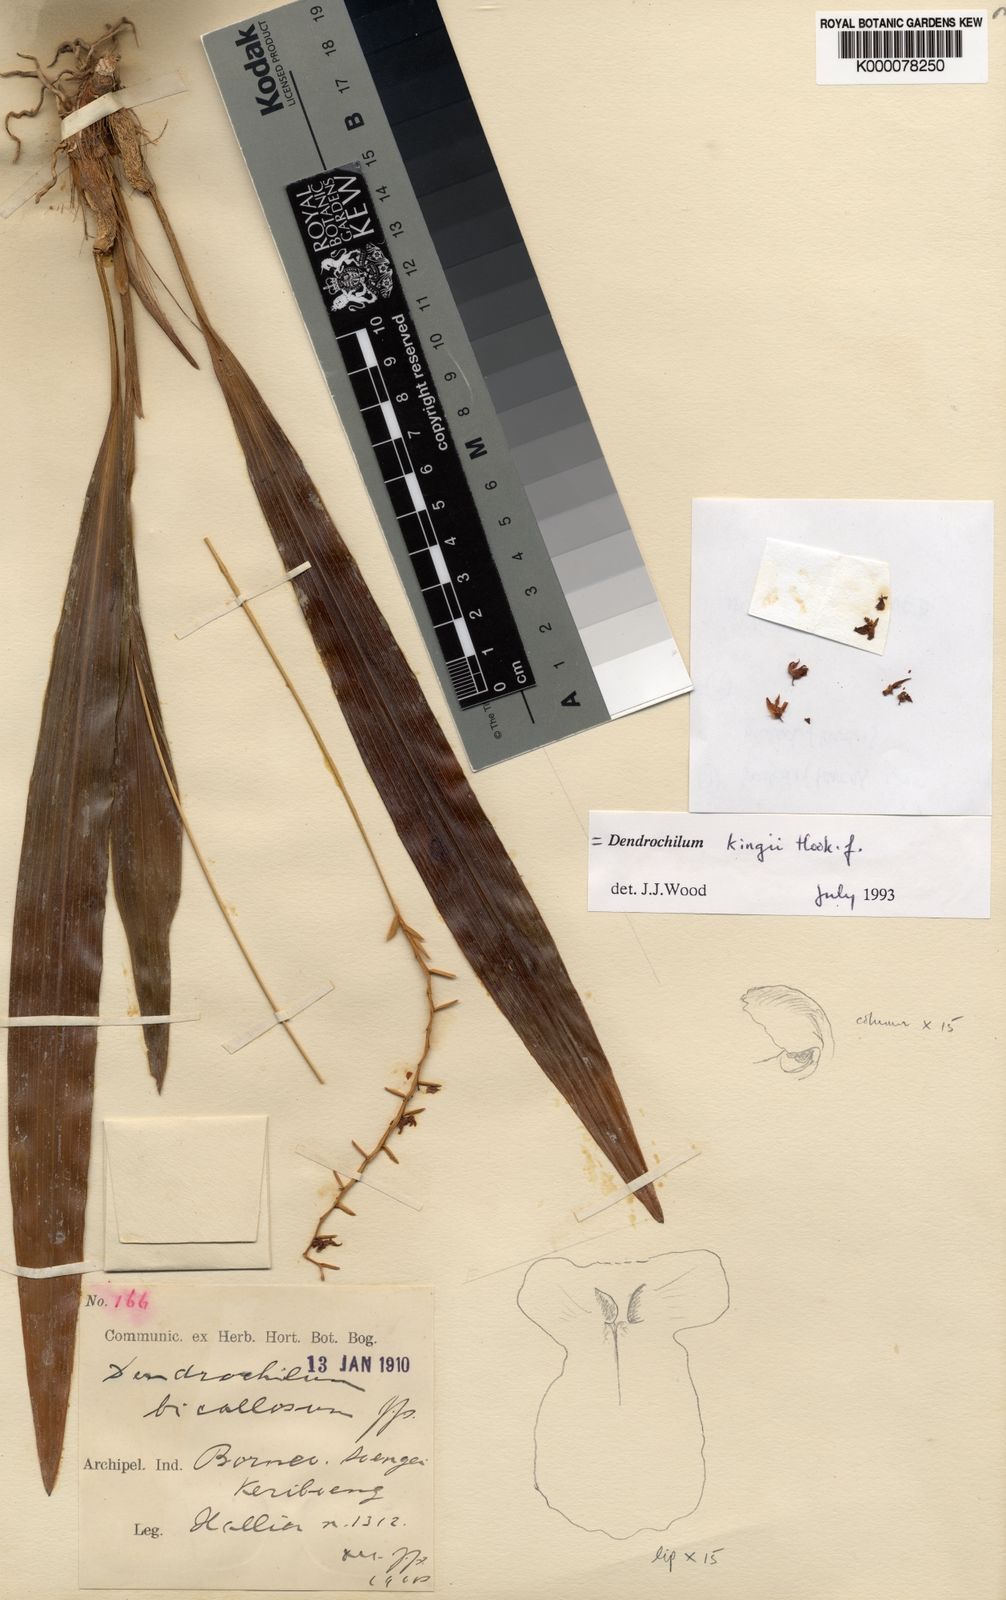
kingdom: Plantae
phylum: Tracheophyta
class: Liliopsida
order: Asparagales
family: Orchidaceae
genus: Coelogyne
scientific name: Coelogyne bigibbosa
